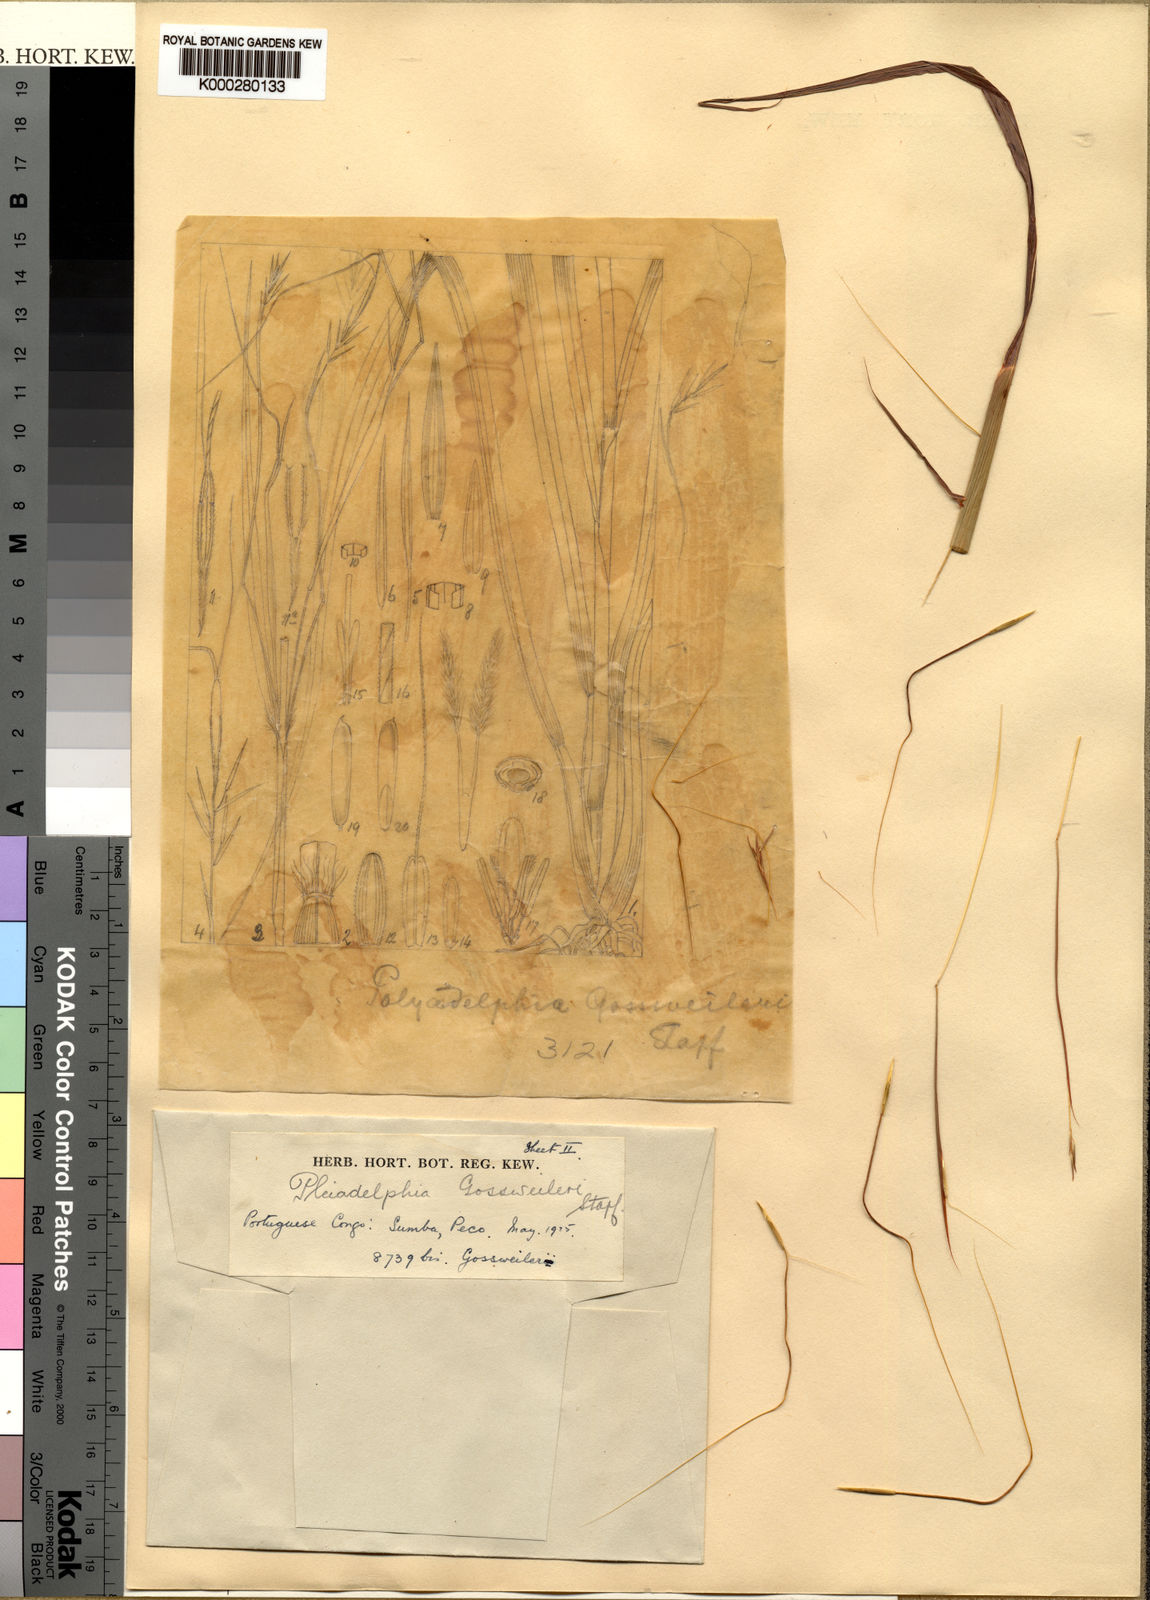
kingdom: Plantae
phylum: Tracheophyta
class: Liliopsida
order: Poales
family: Poaceae
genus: Elymandra
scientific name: Elymandra gossweileri
